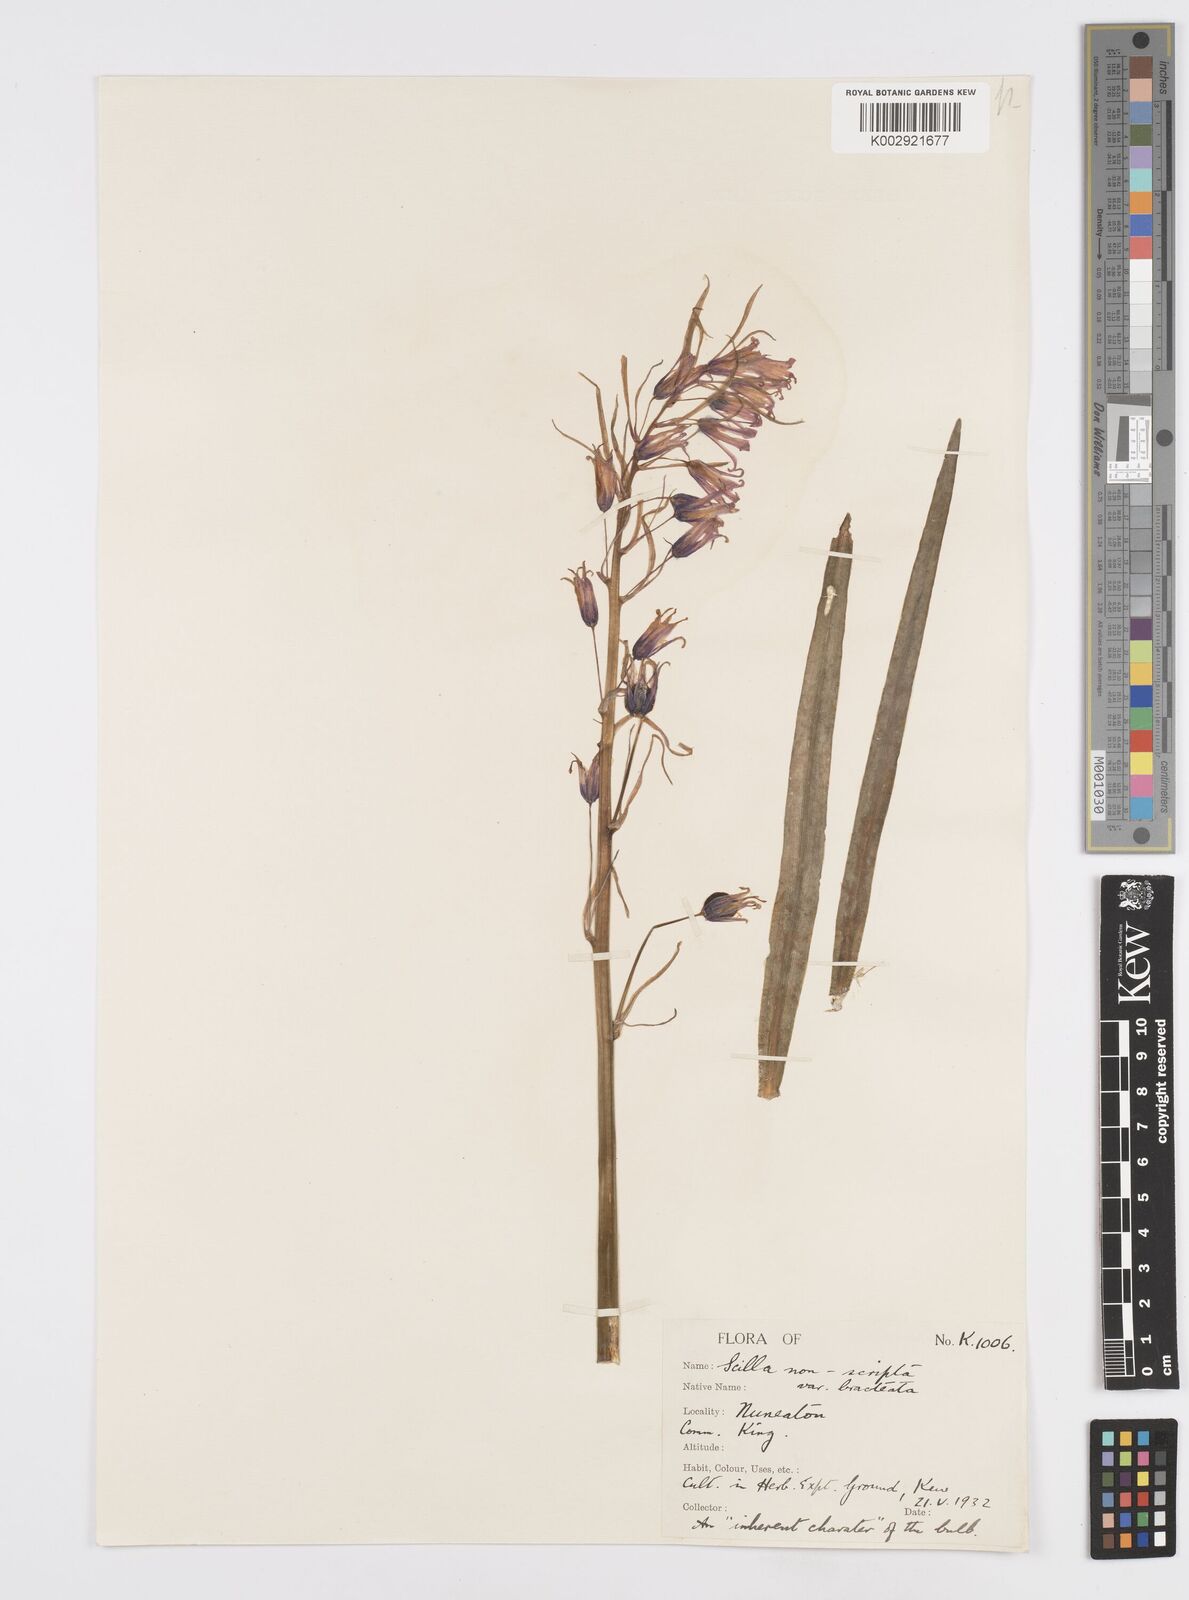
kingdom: Plantae
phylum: Tracheophyta
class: Liliopsida
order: Asparagales
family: Asparagaceae
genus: Hyacinthoides
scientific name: Hyacinthoides
